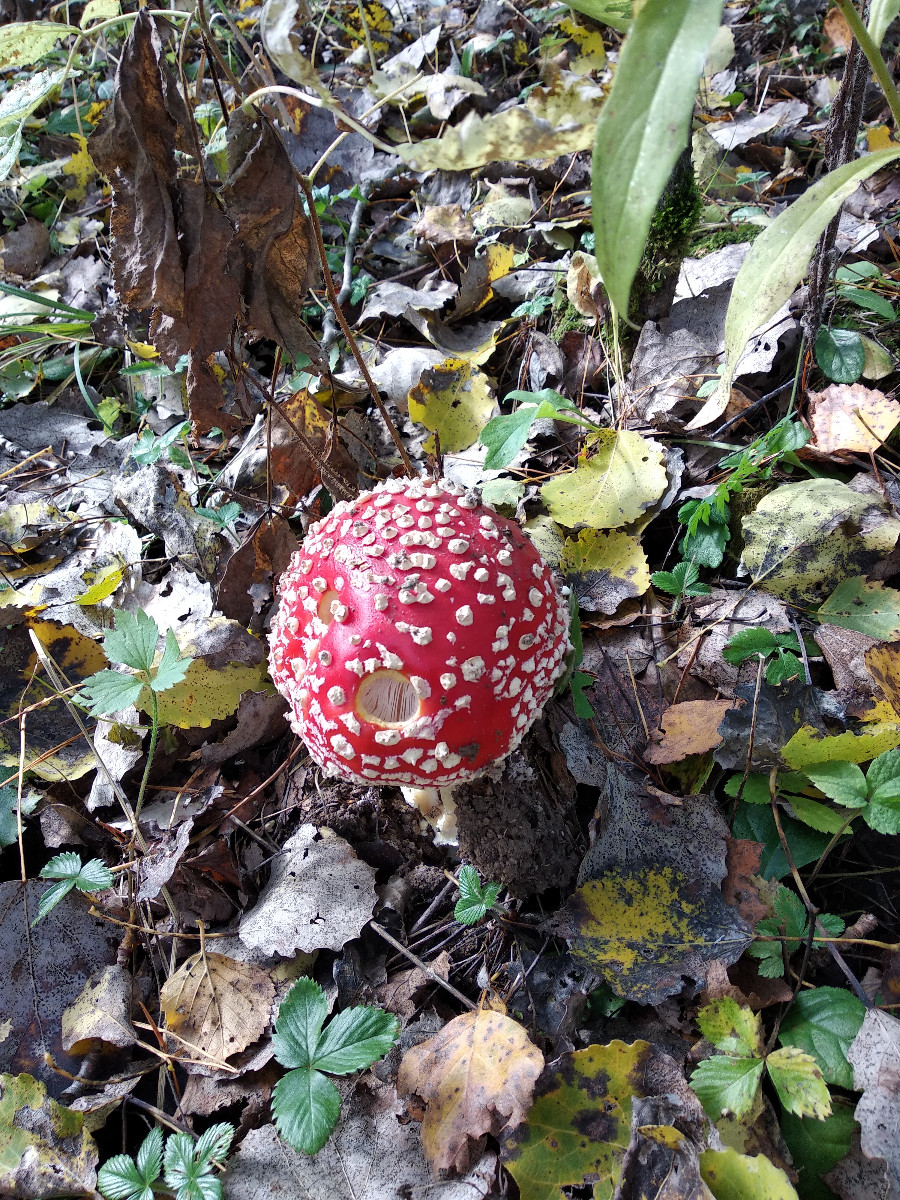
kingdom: Fungi
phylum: Basidiomycota
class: Agaricomycetes
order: Agaricales
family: Amanitaceae
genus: Amanita
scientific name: Amanita muscaria
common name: rød fluesvamp
